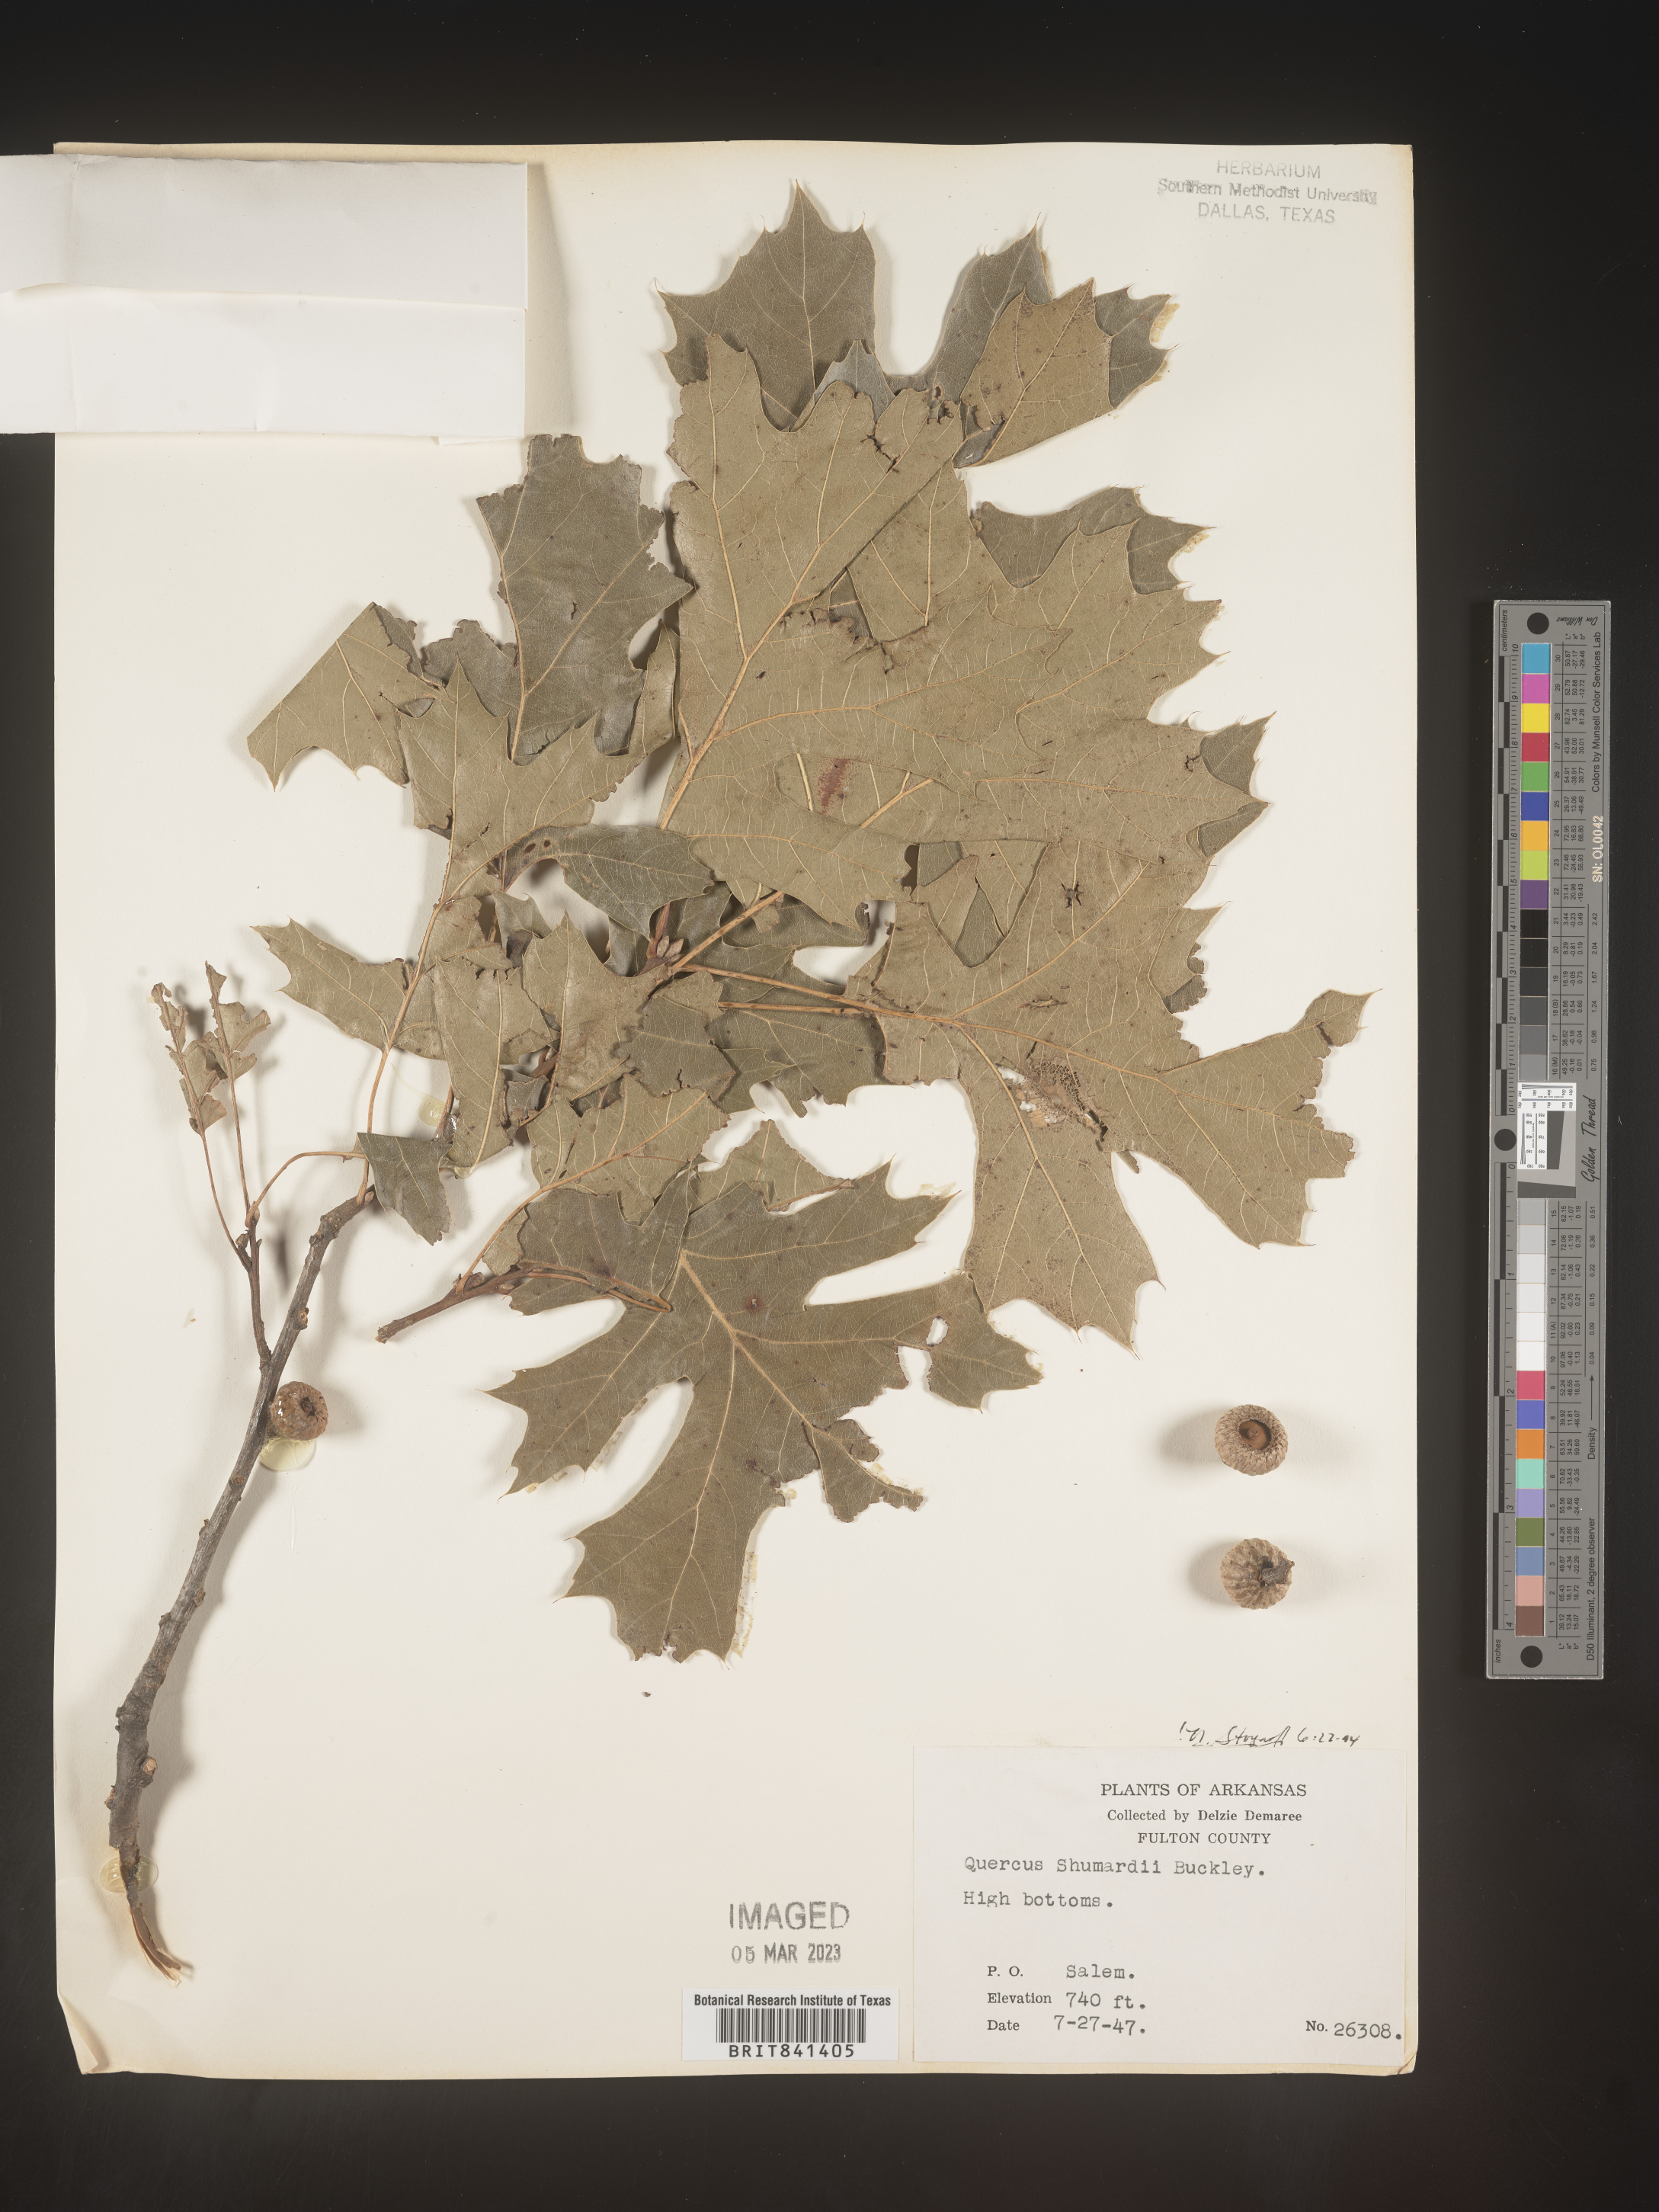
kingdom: Plantae
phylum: Tracheophyta
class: Magnoliopsida
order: Fagales
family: Fagaceae
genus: Quercus
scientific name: Quercus shumardii
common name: Shumard oak
